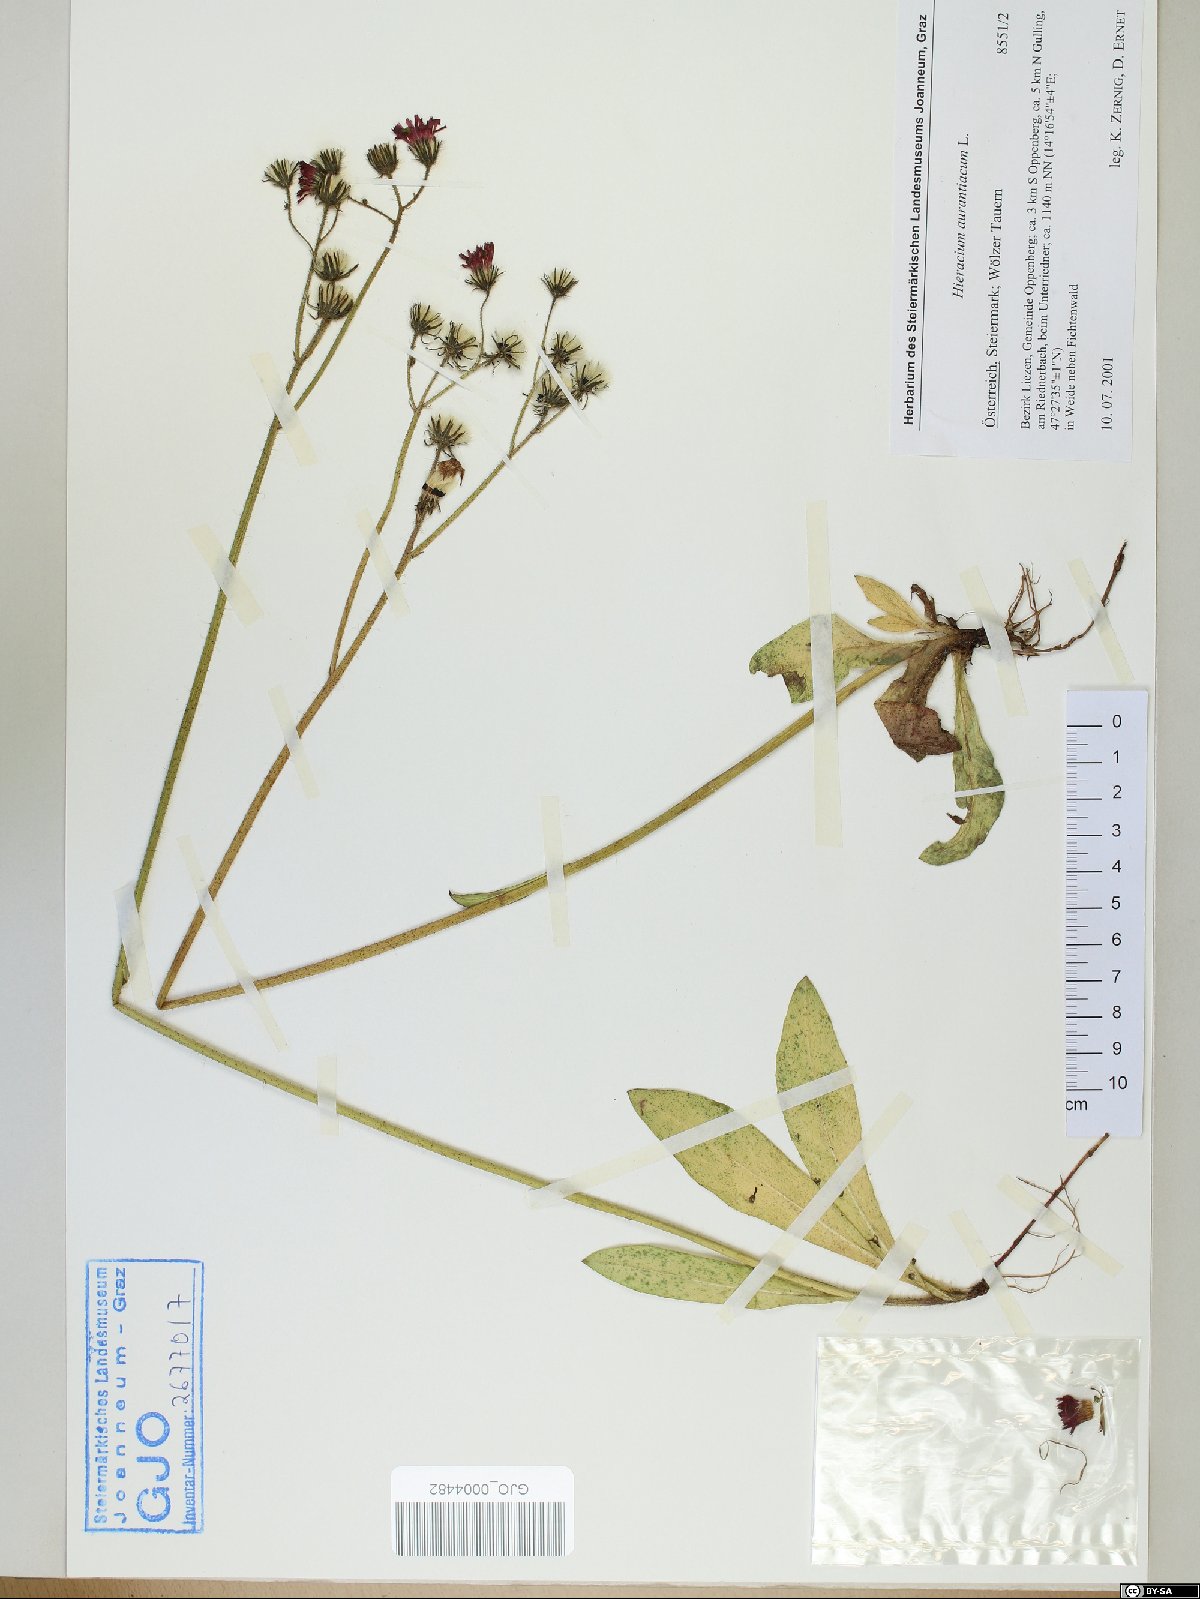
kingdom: Plantae
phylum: Tracheophyta
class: Magnoliopsida
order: Asterales
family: Asteraceae
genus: Pilosella
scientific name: Pilosella aurantiaca
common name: Fox-and-cubs
